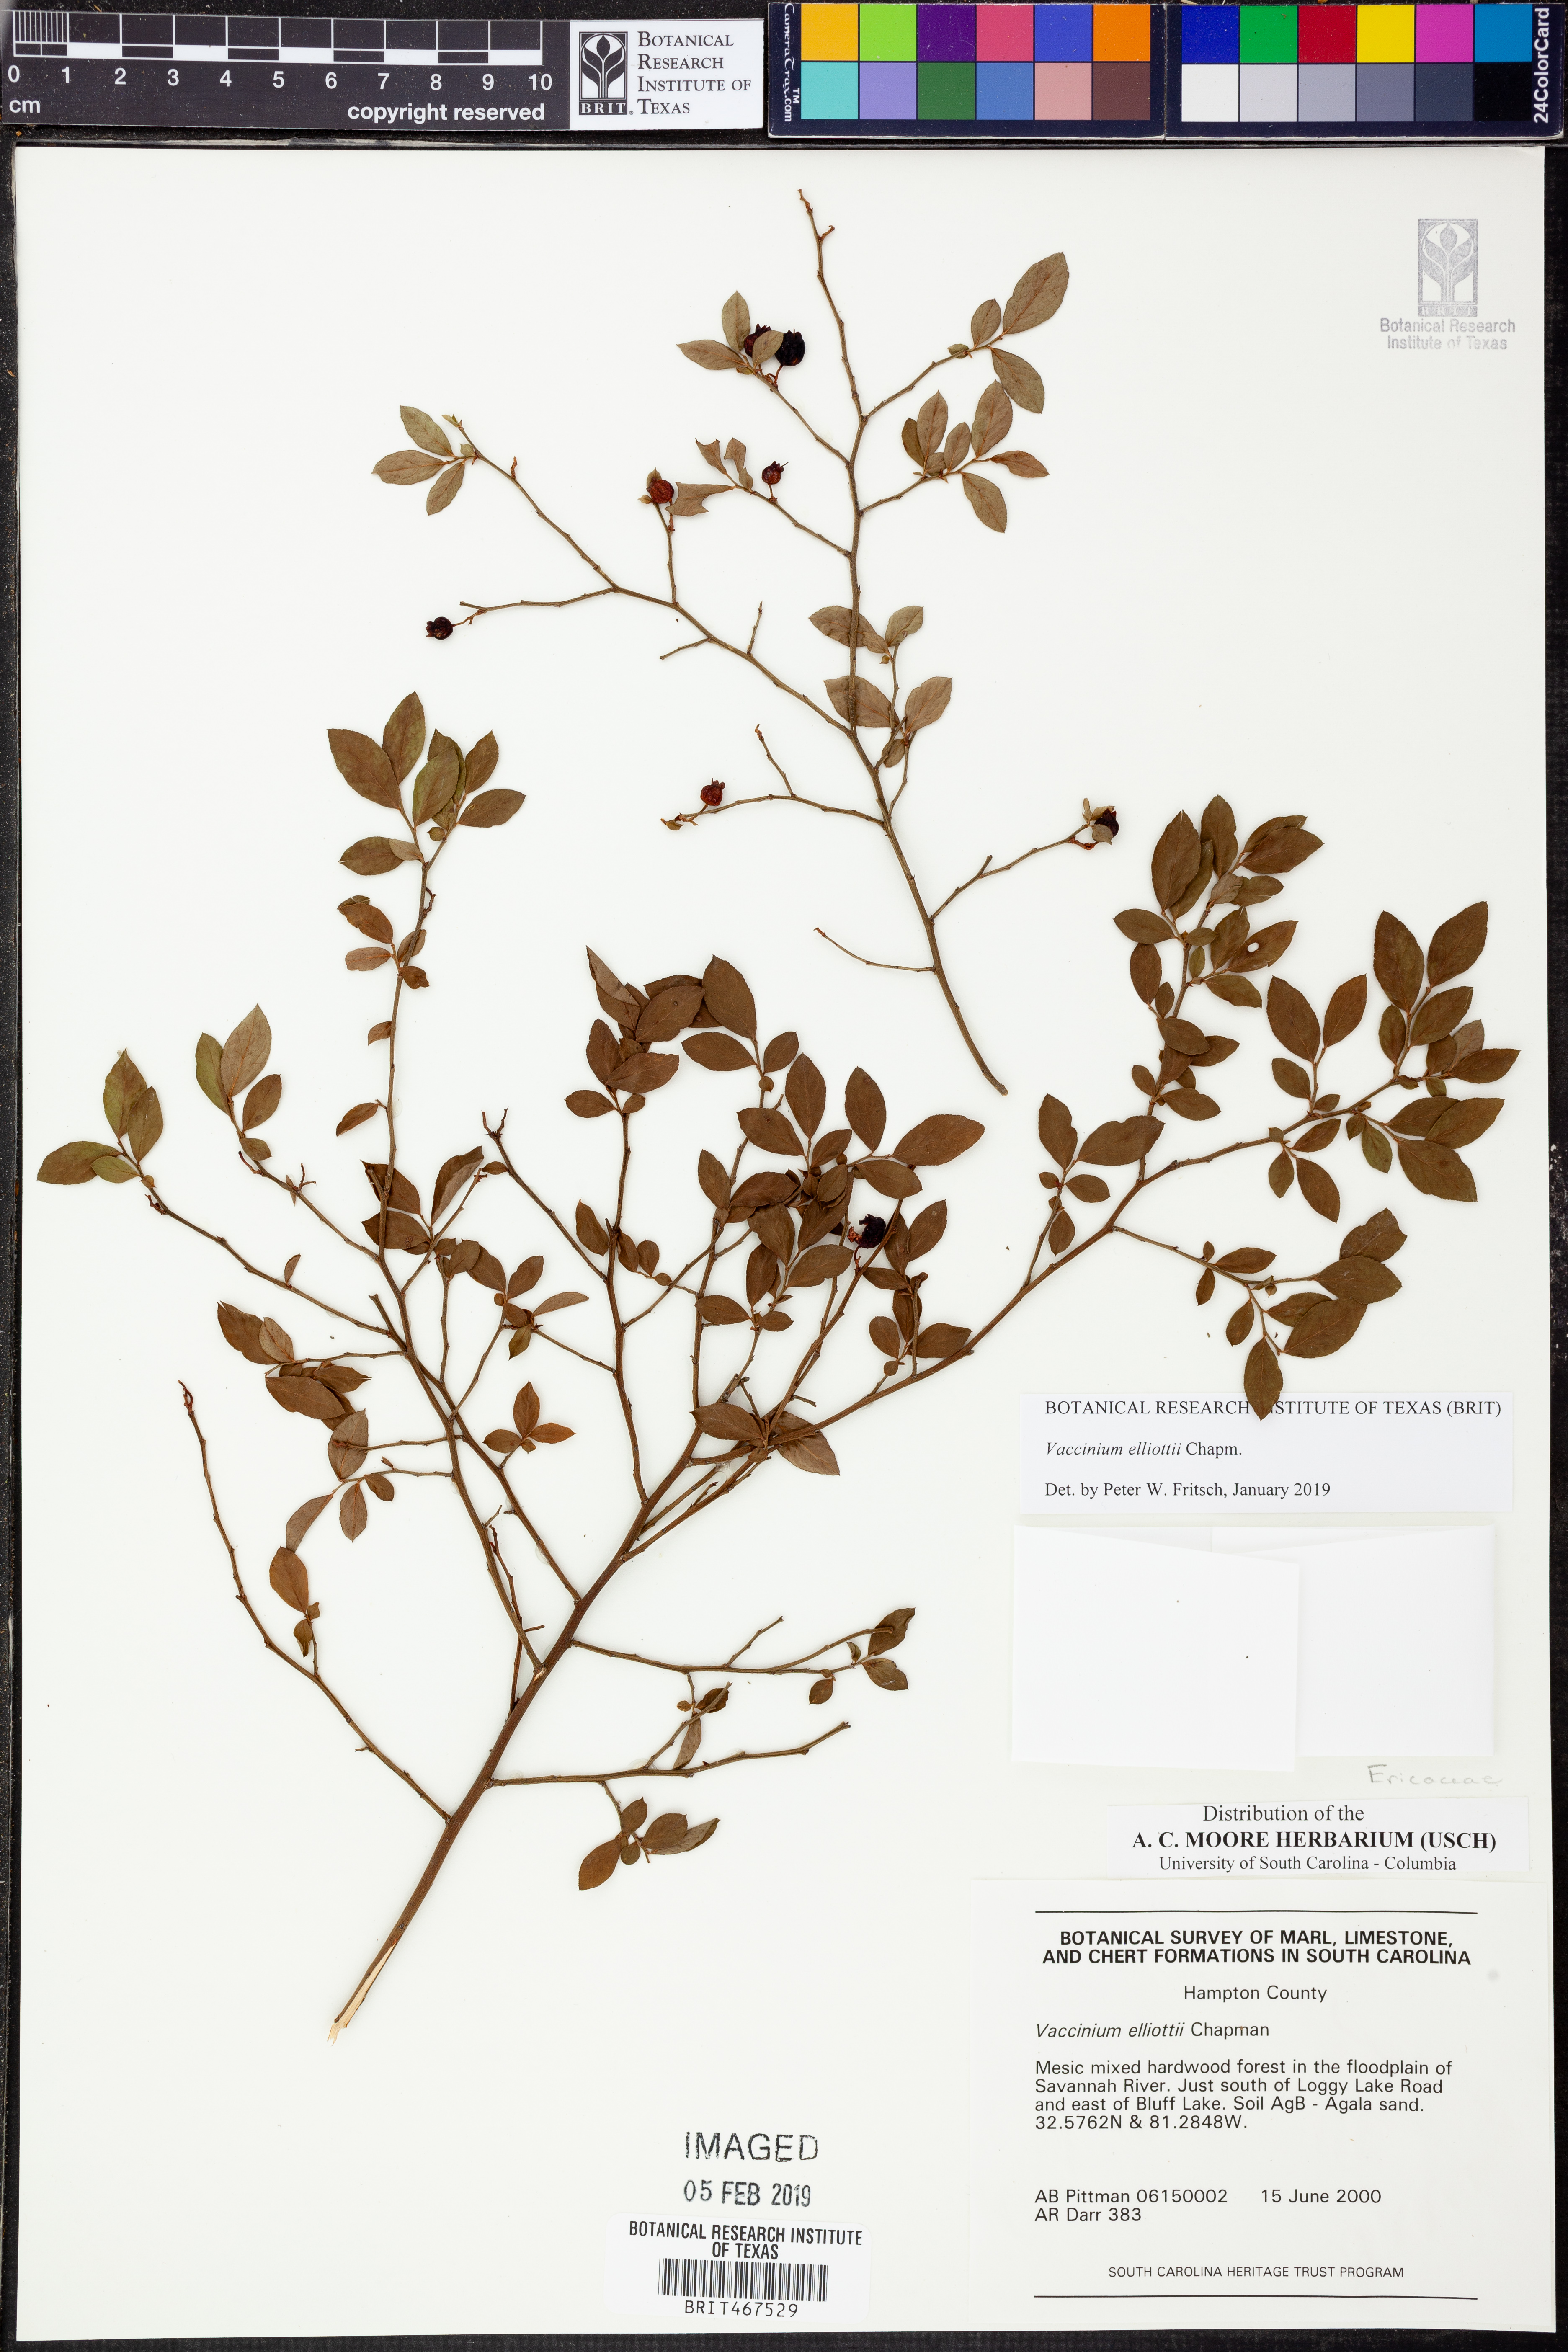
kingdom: Plantae
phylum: Tracheophyta
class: Magnoliopsida
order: Ericales
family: Ericaceae
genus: Vaccinium
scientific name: Vaccinium corymbosum
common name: Blueberry
